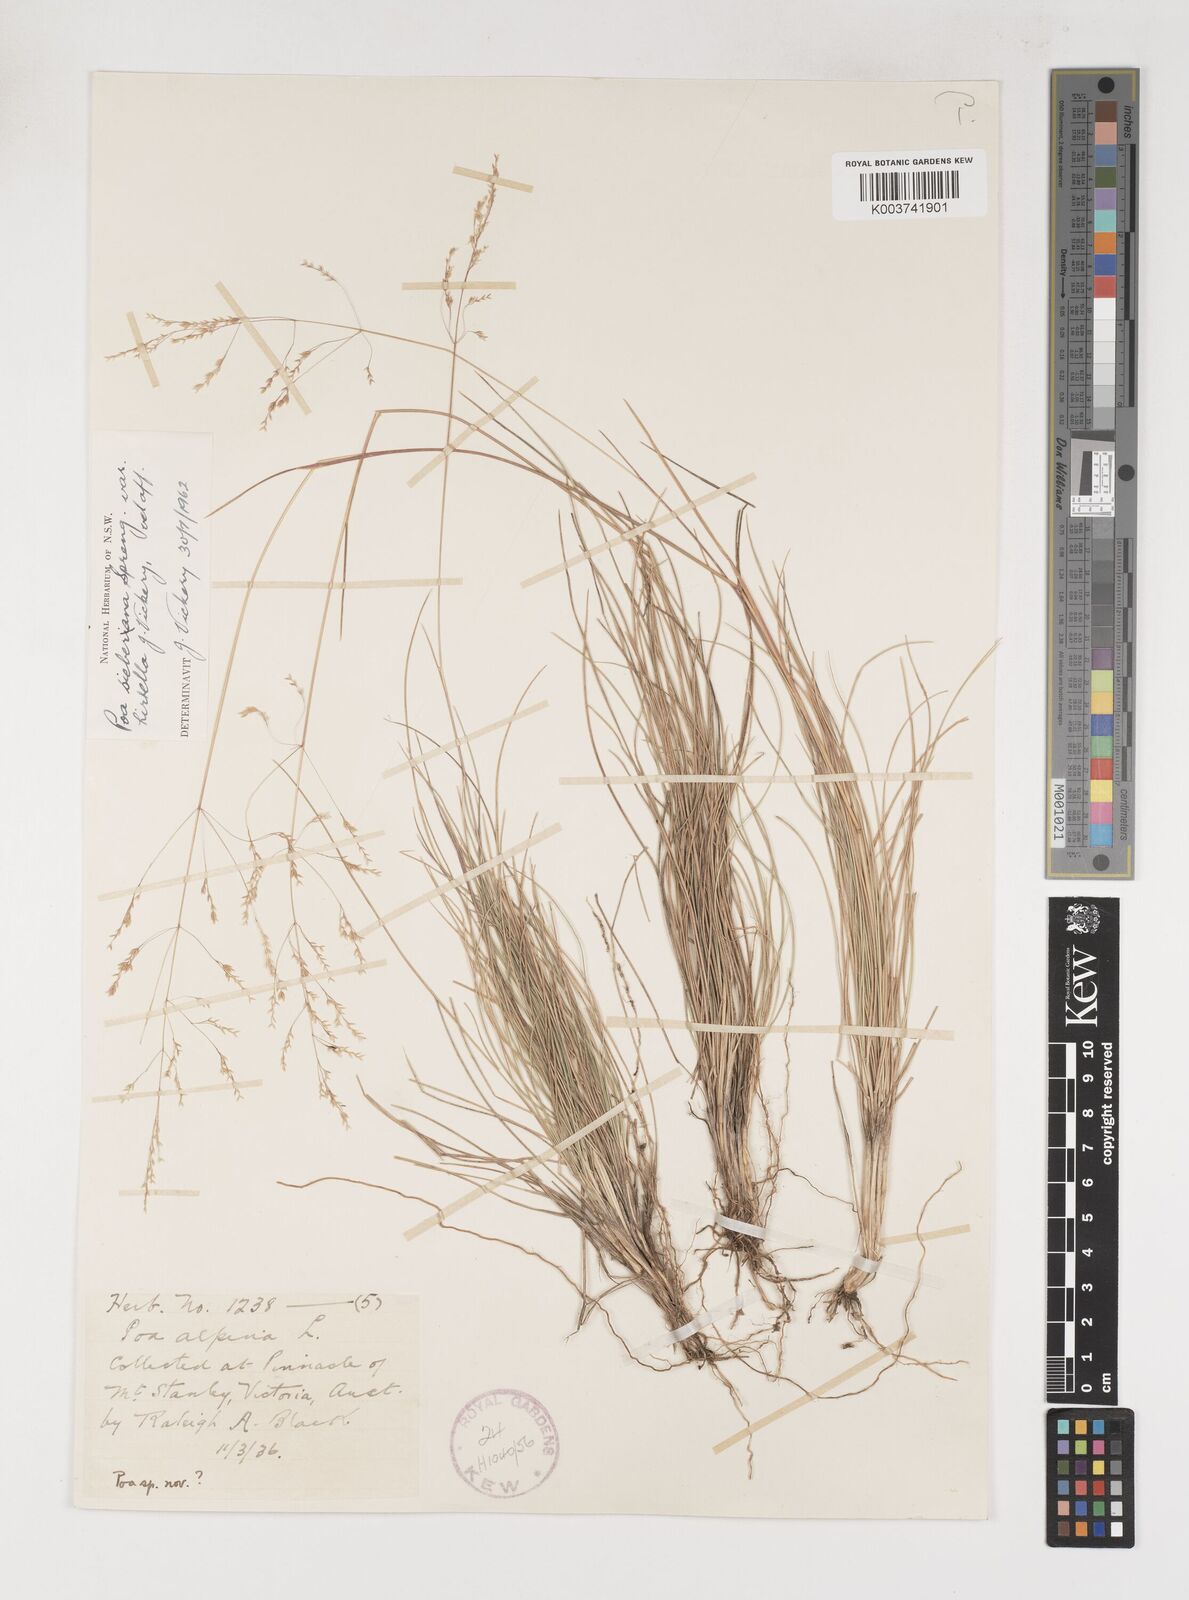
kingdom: Plantae
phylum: Tracheophyta
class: Liliopsida
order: Poales
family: Poaceae
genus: Poa
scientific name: Poa sieberiana
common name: Tussock poa
